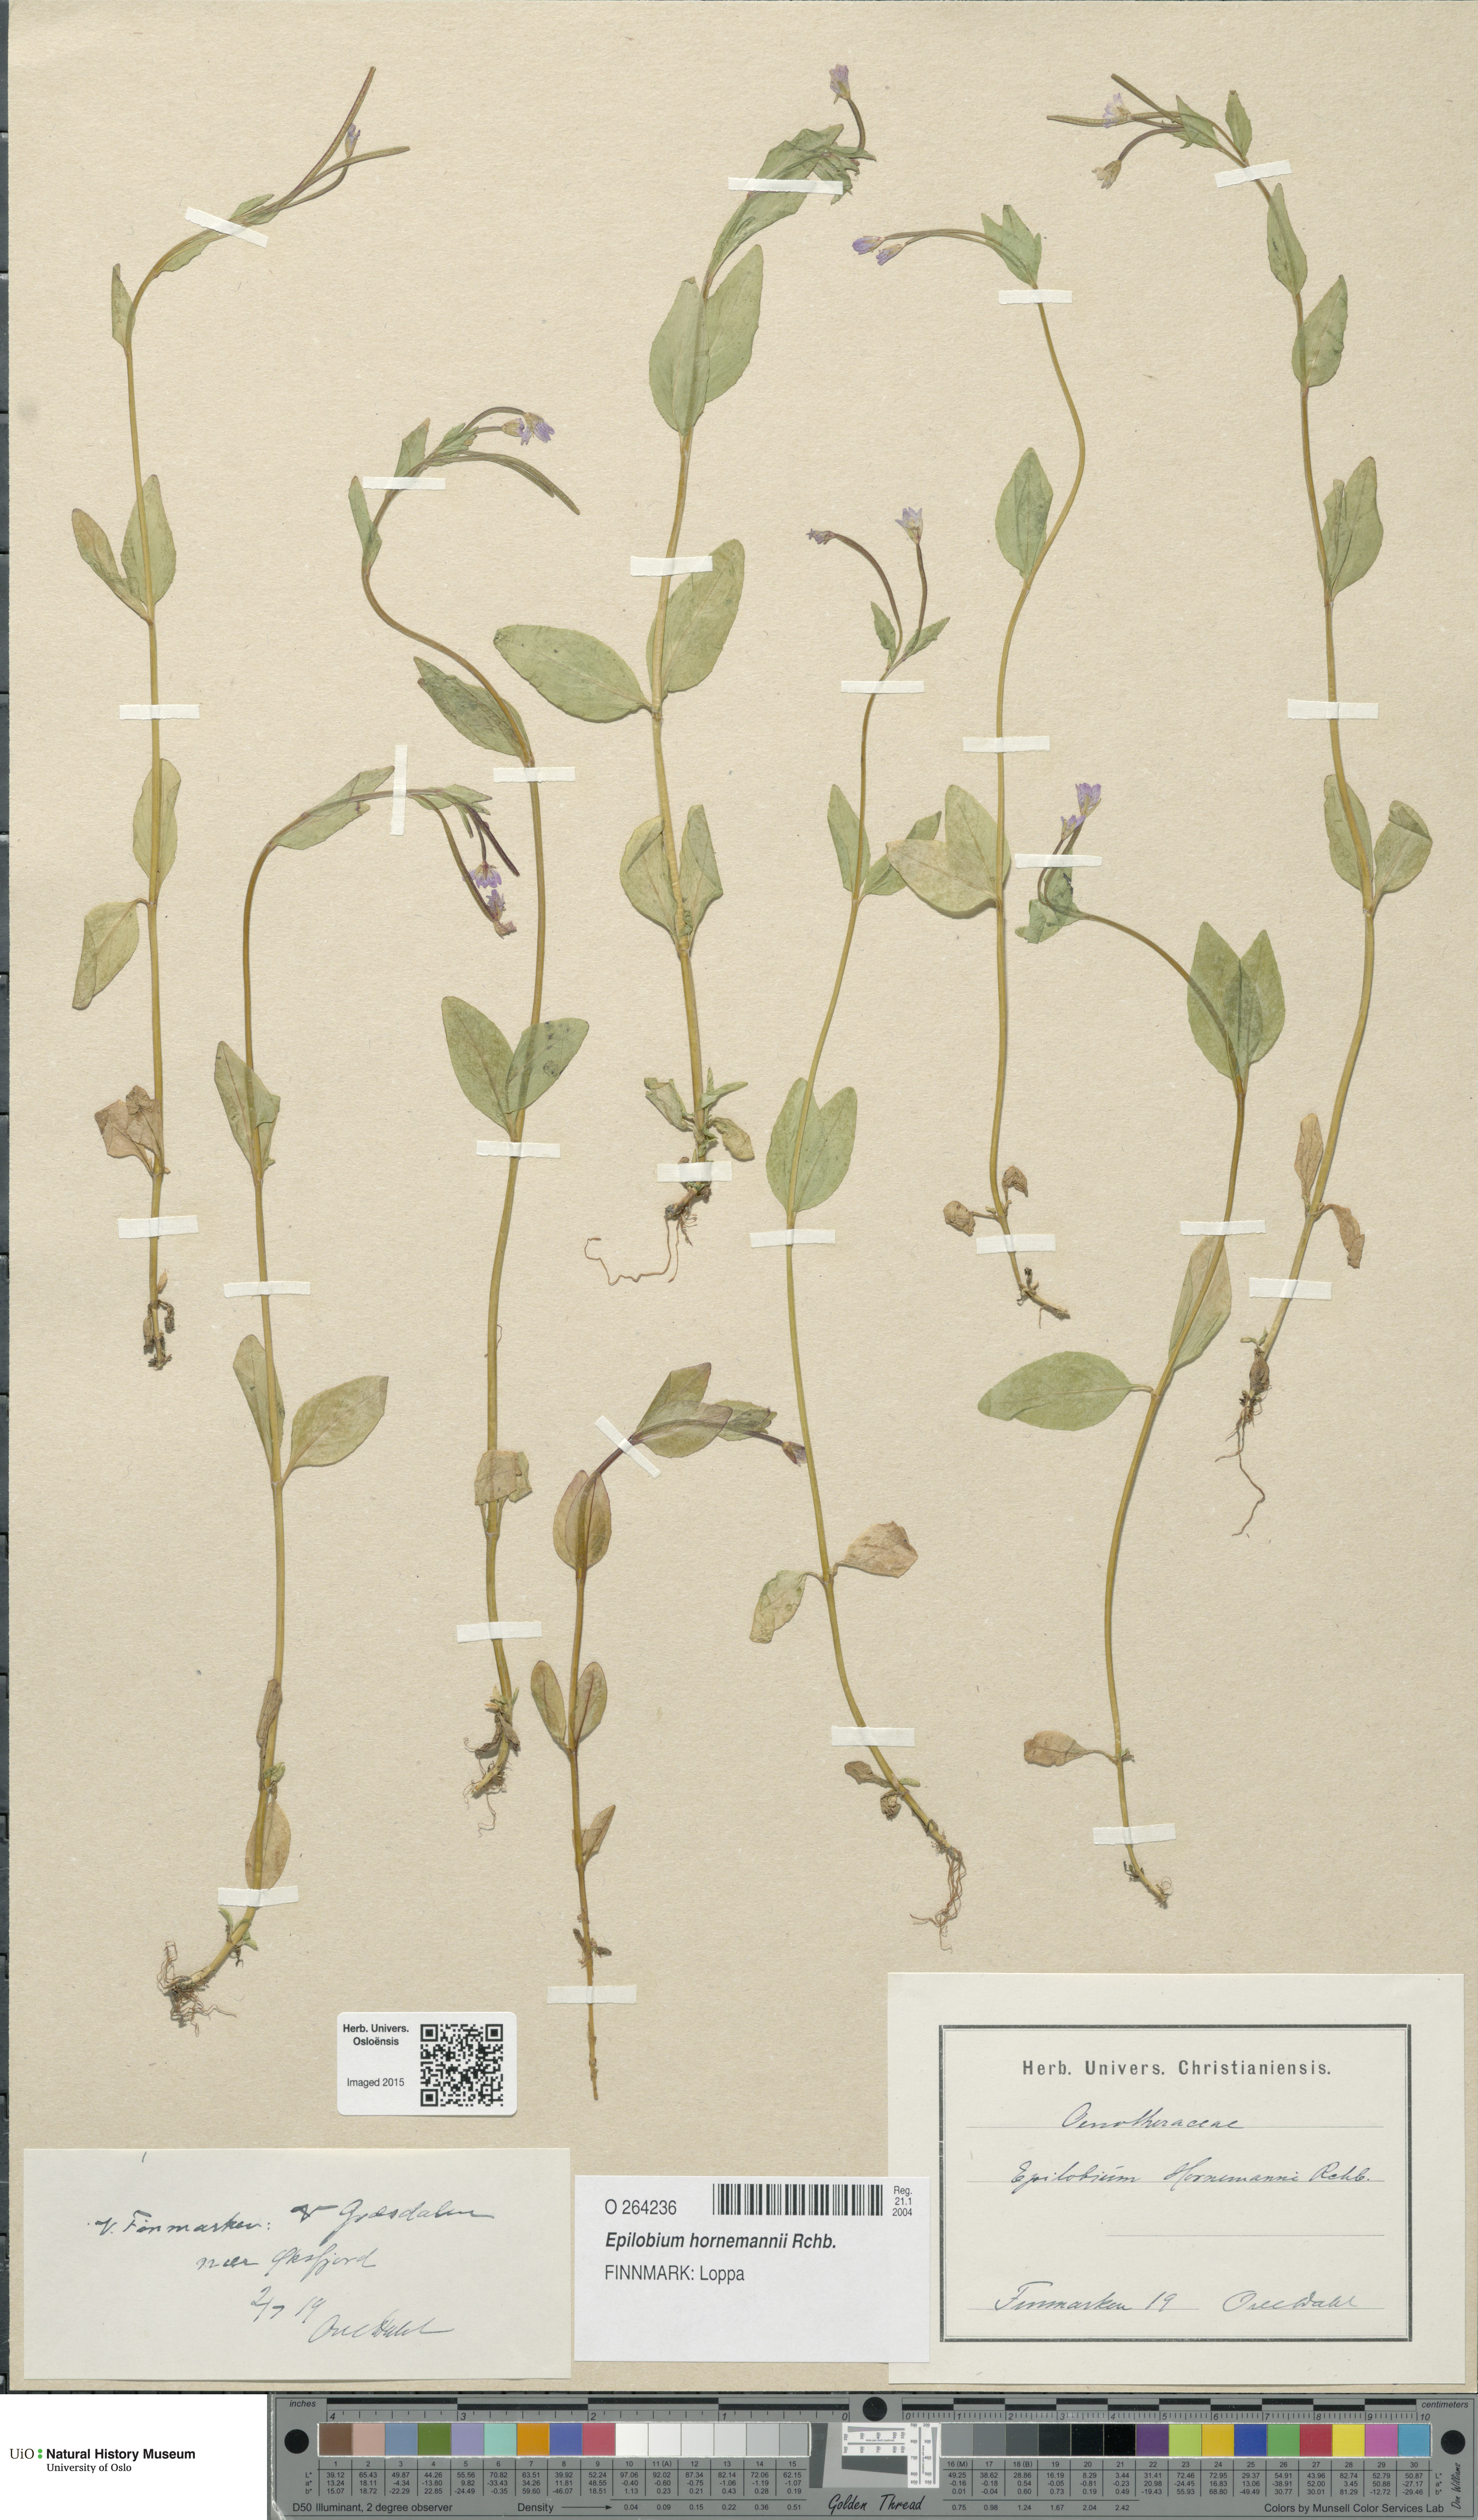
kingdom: Plantae
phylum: Tracheophyta
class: Magnoliopsida
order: Myrtales
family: Onagraceae
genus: Epilobium
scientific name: Epilobium hornemannii
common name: Hornemann's willowherb
